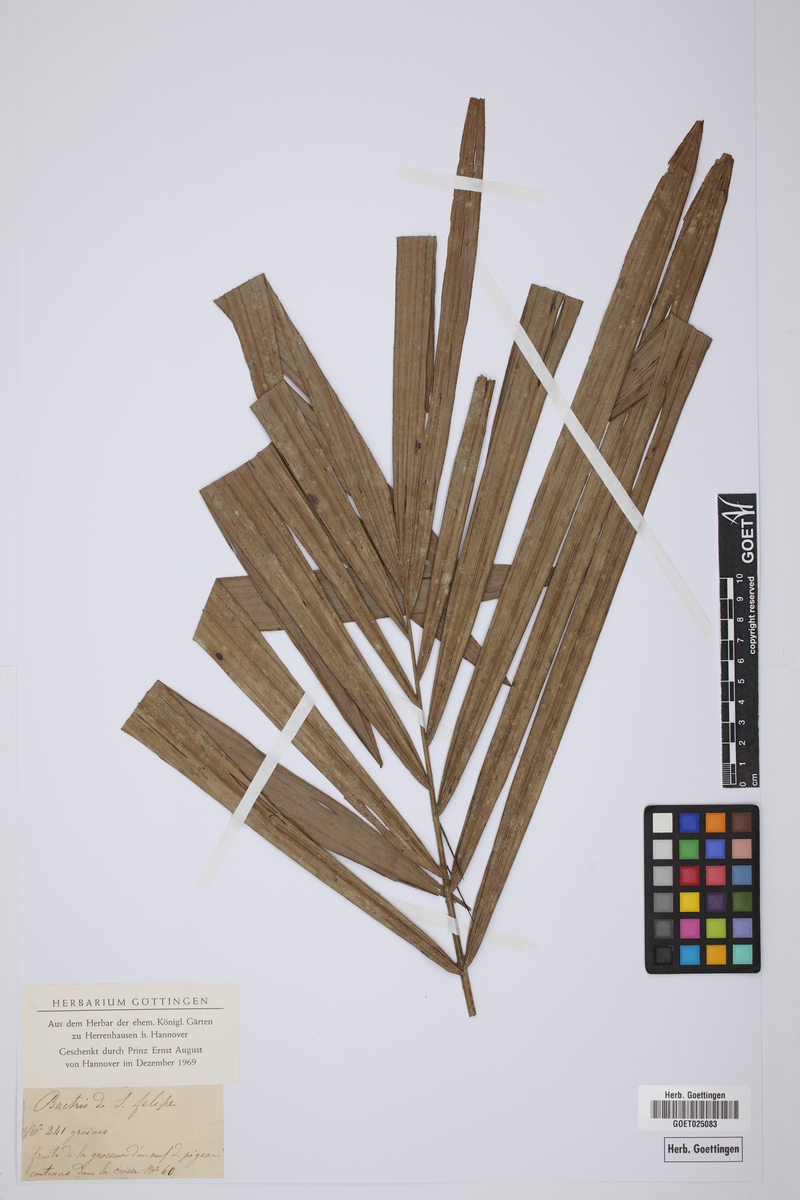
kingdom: Plantae
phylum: Tracheophyta
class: Liliopsida
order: Arecales
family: Arecaceae
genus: Bactris
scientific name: Bactris
